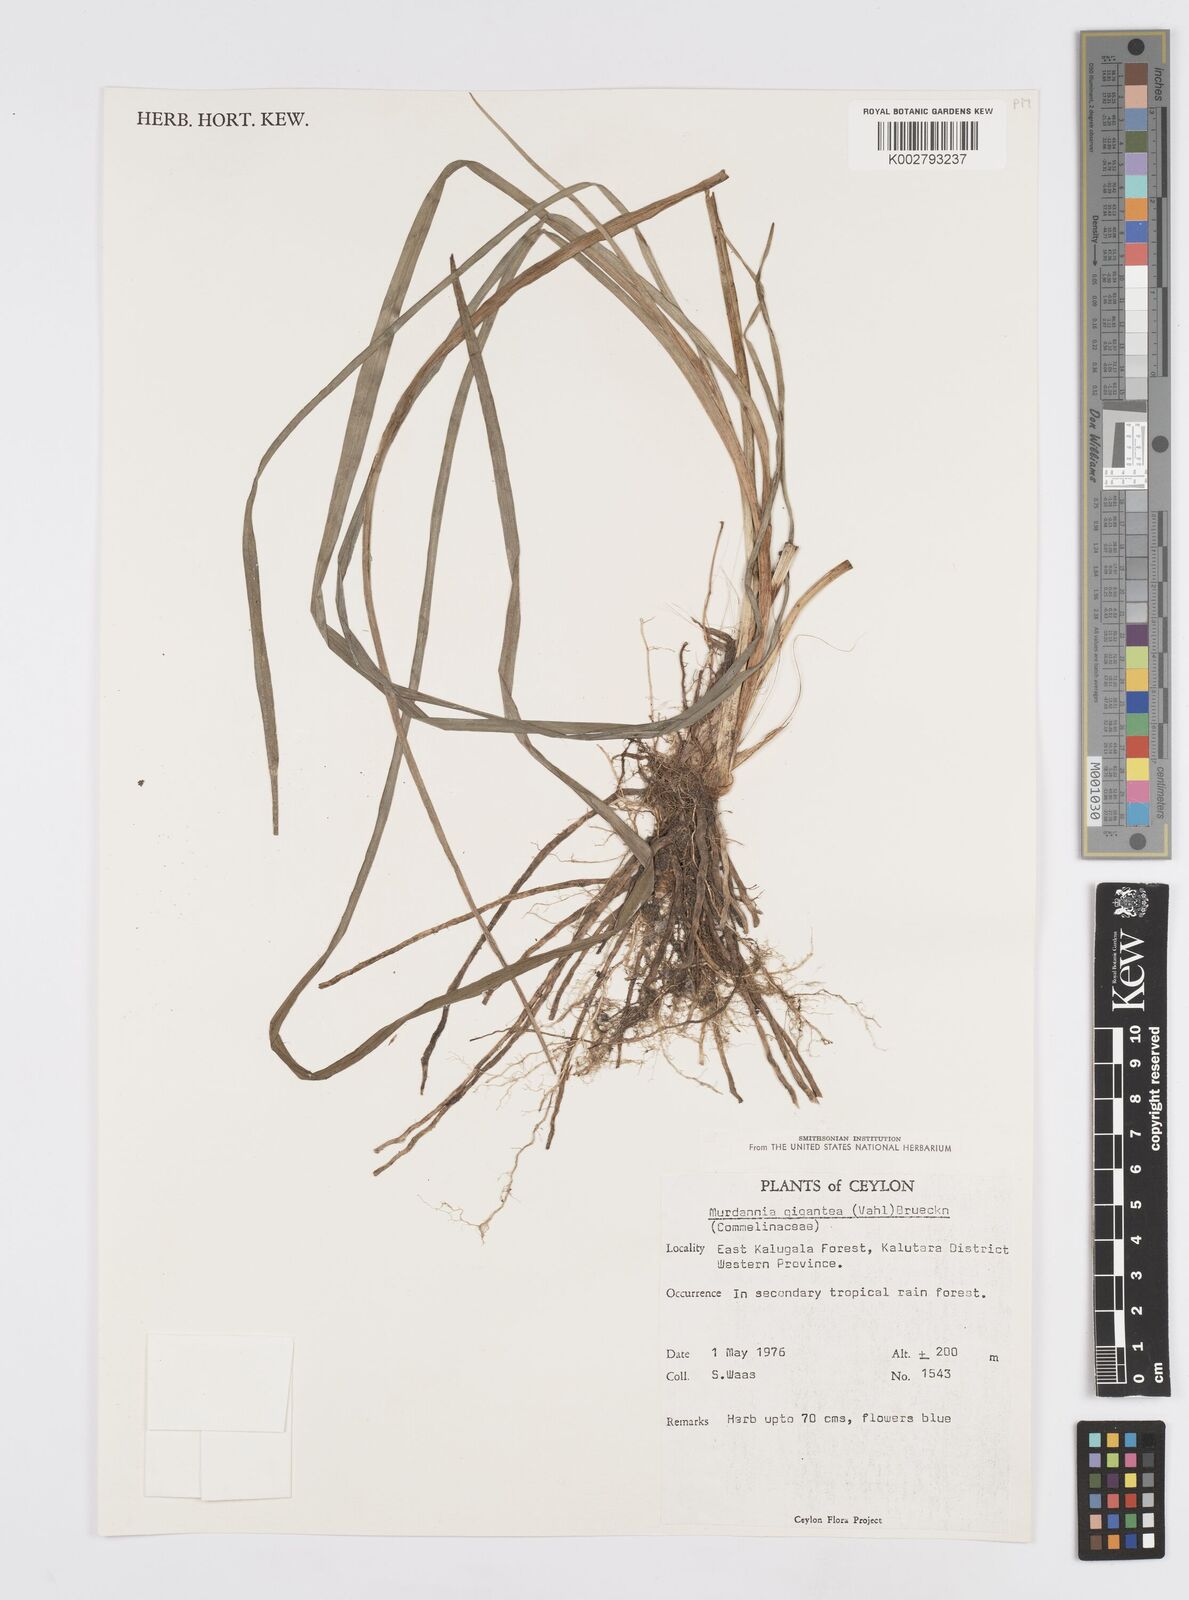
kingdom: Plantae
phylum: Tracheophyta
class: Liliopsida
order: Commelinales
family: Commelinaceae
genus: Murdannia
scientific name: Murdannia gigantea
